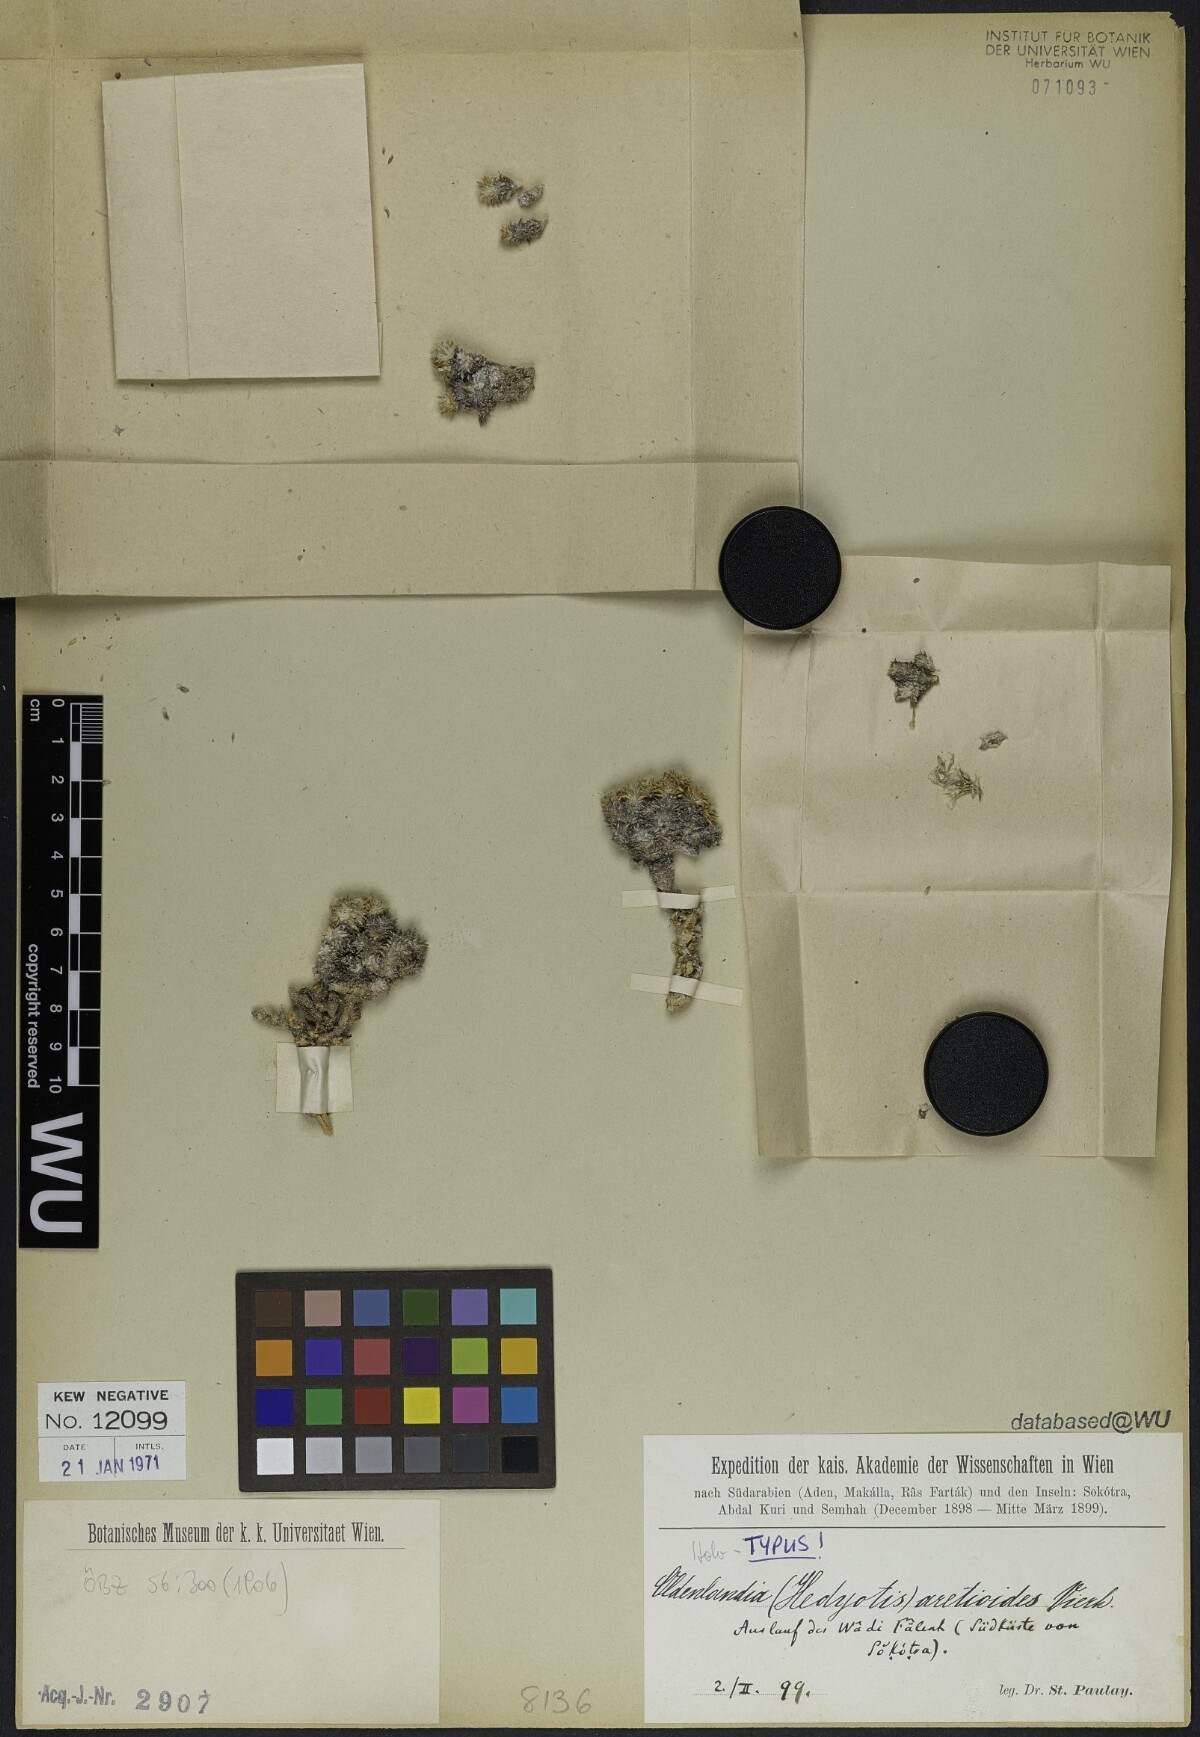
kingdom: Plantae
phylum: Tracheophyta
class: Magnoliopsida
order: Gentianales
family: Rubiaceae
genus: Oldenlandia
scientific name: Oldenlandia aretioides
